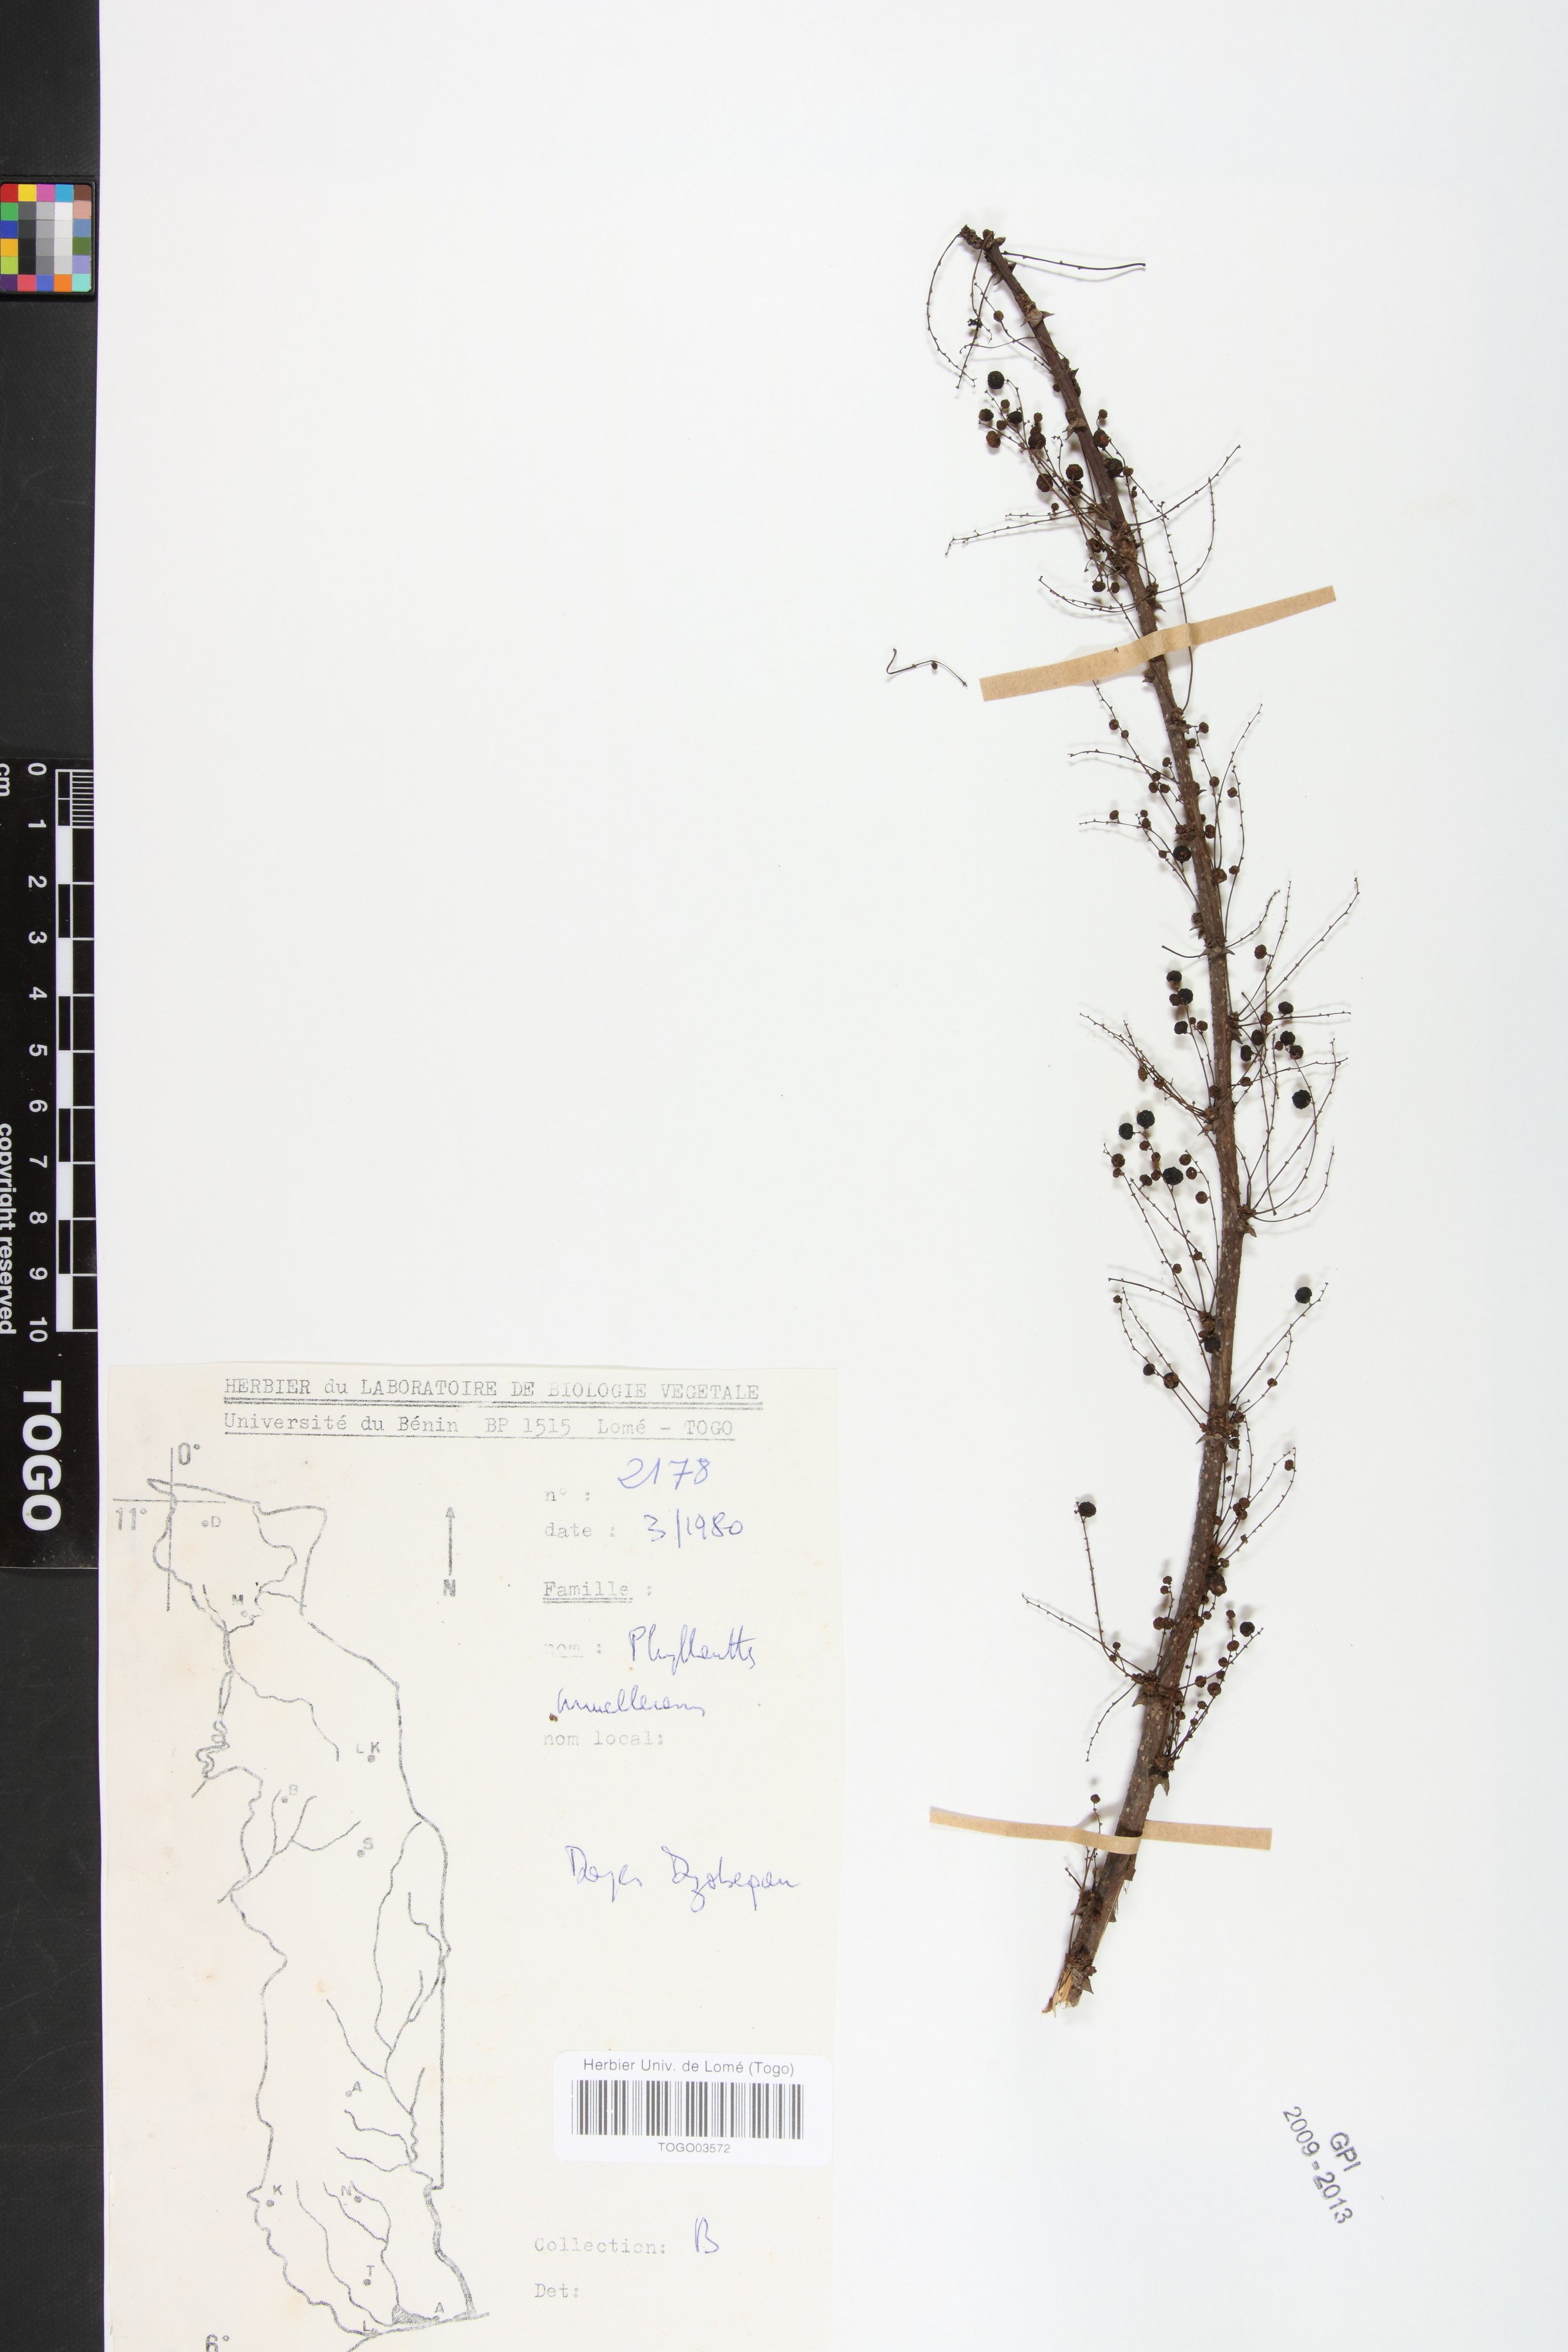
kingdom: Plantae
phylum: Tracheophyta
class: Magnoliopsida
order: Malpighiales
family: Phyllanthaceae
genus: Phyllanthus
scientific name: Phyllanthus muellerianus
